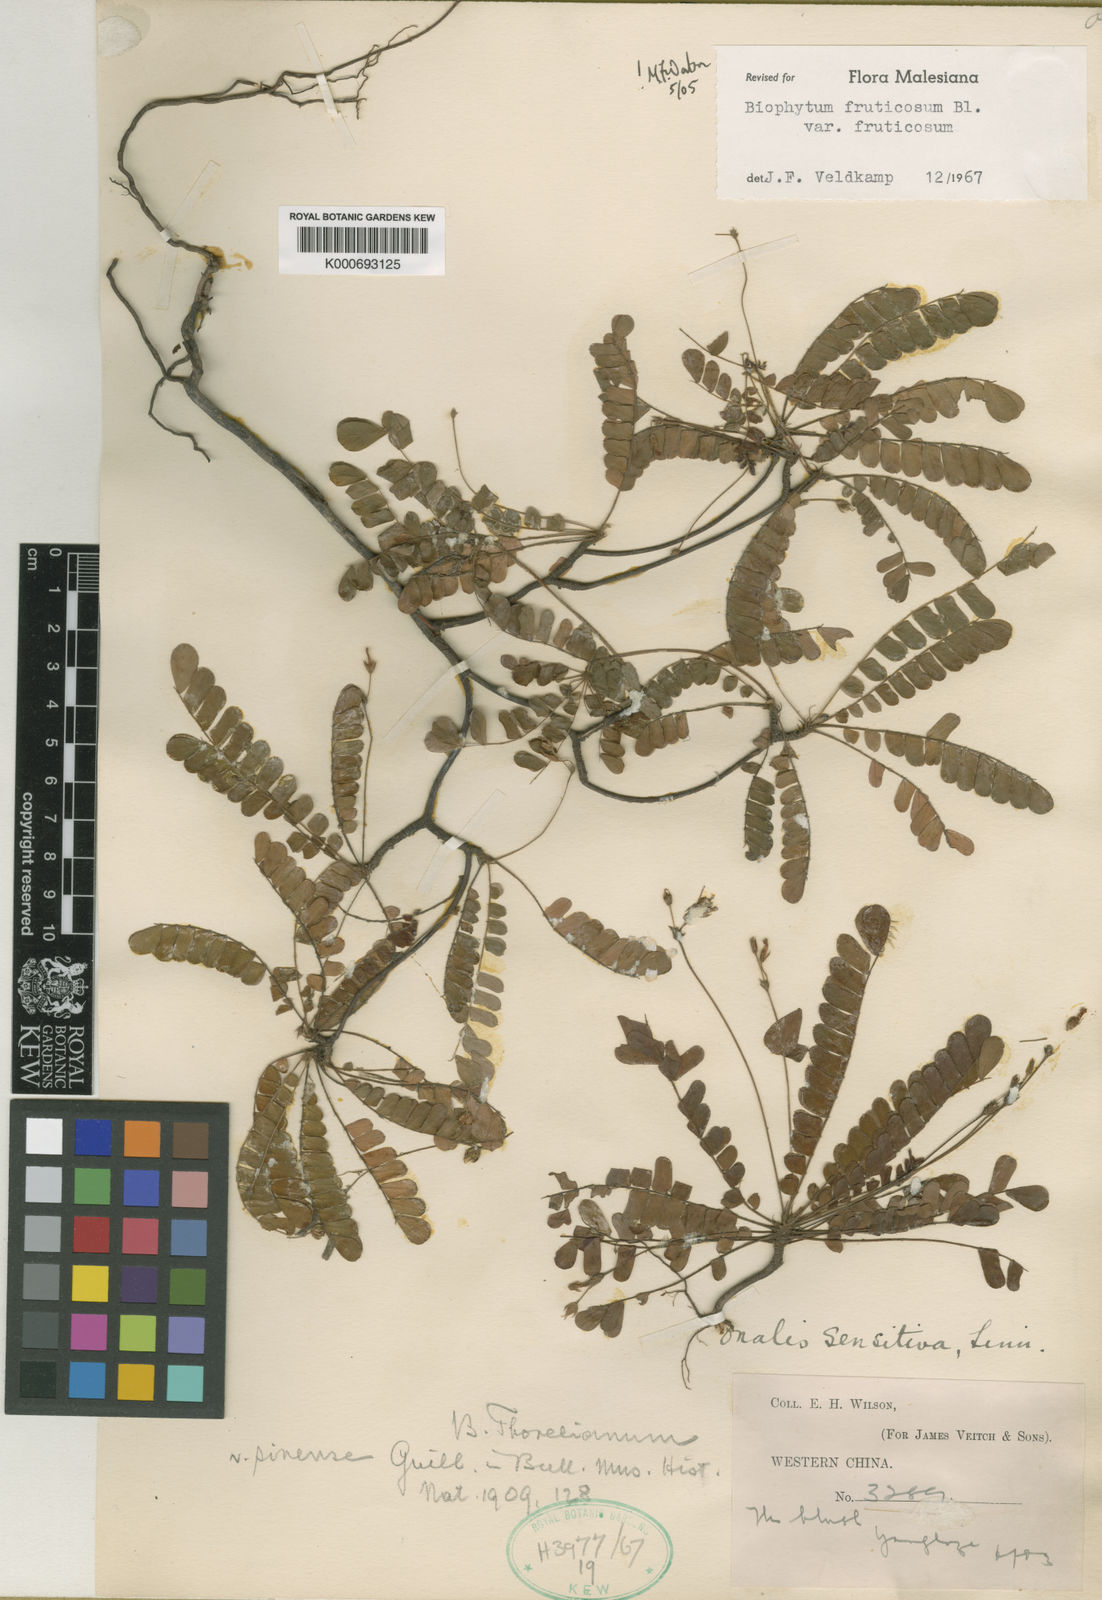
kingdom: Plantae
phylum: Tracheophyta
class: Magnoliopsida
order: Oxalidales
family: Oxalidaceae
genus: Biophytum
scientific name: Biophytum
